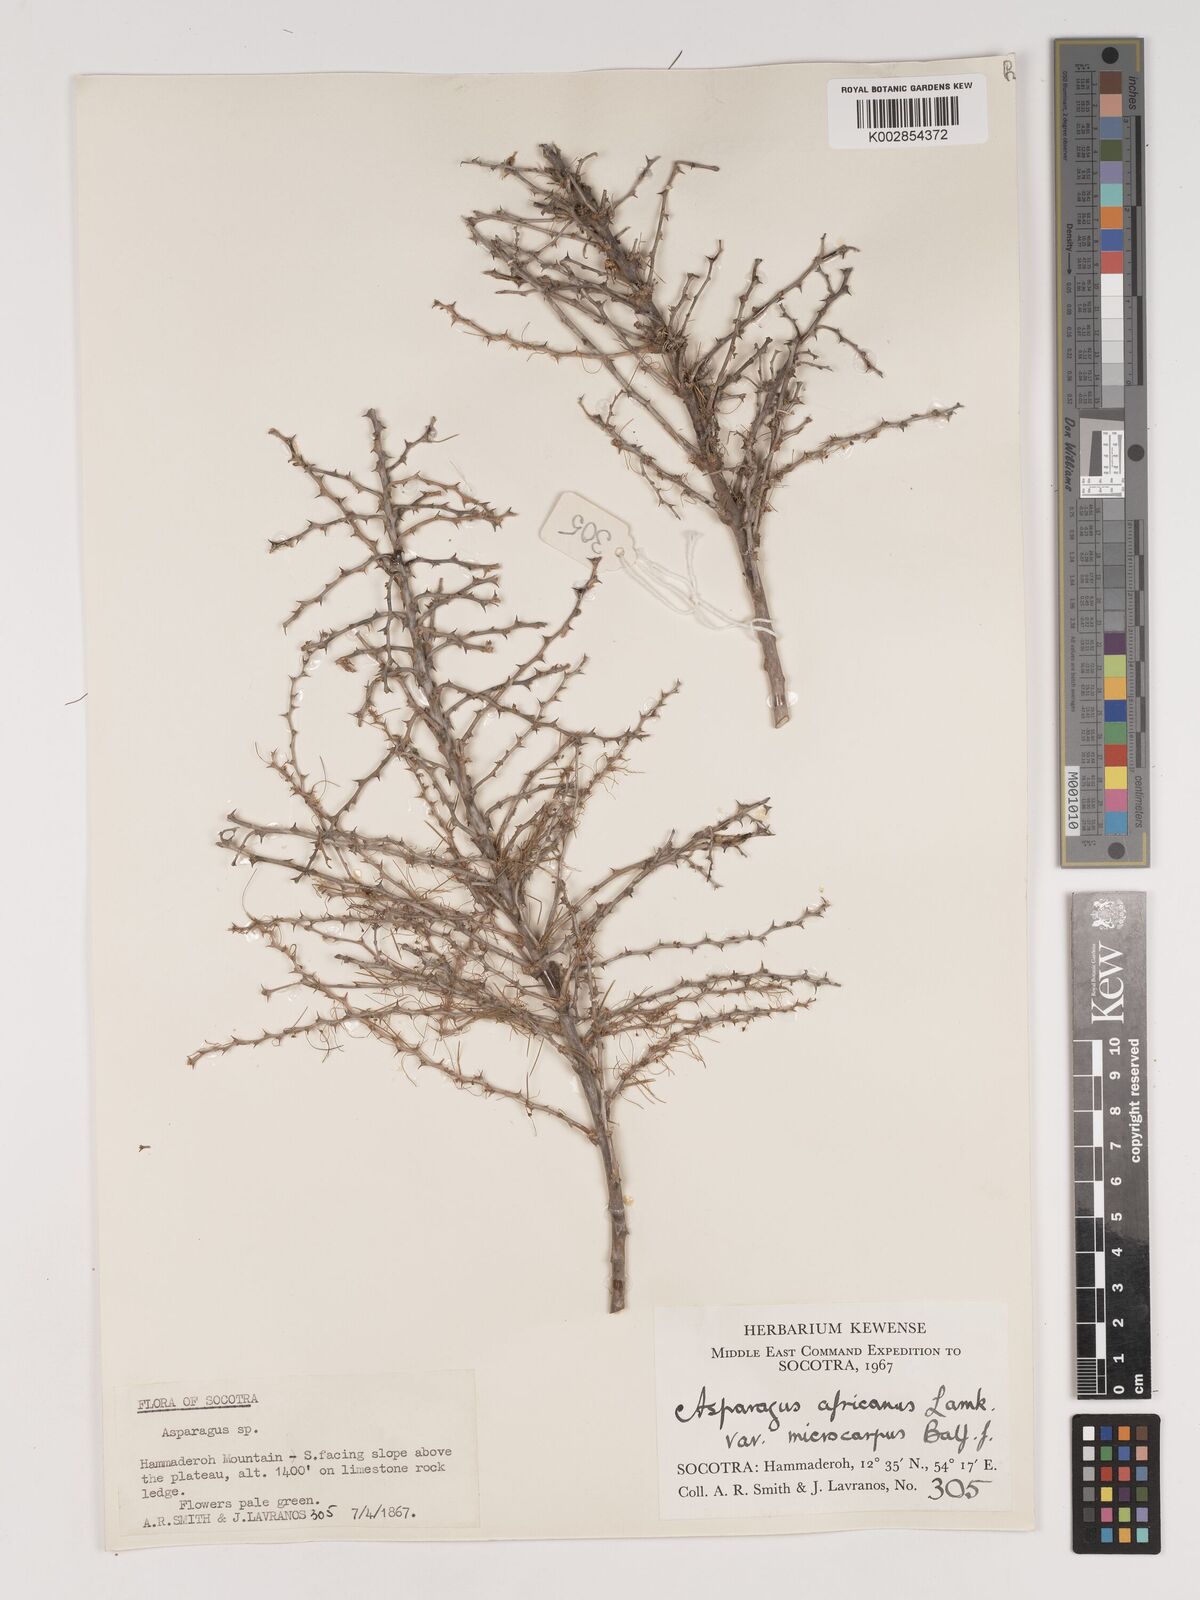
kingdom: Plantae
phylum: Tracheophyta
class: Liliopsida
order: Asparagales
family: Asparagaceae
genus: Asparagus
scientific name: Asparagus africanus
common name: Asparagus-fern
